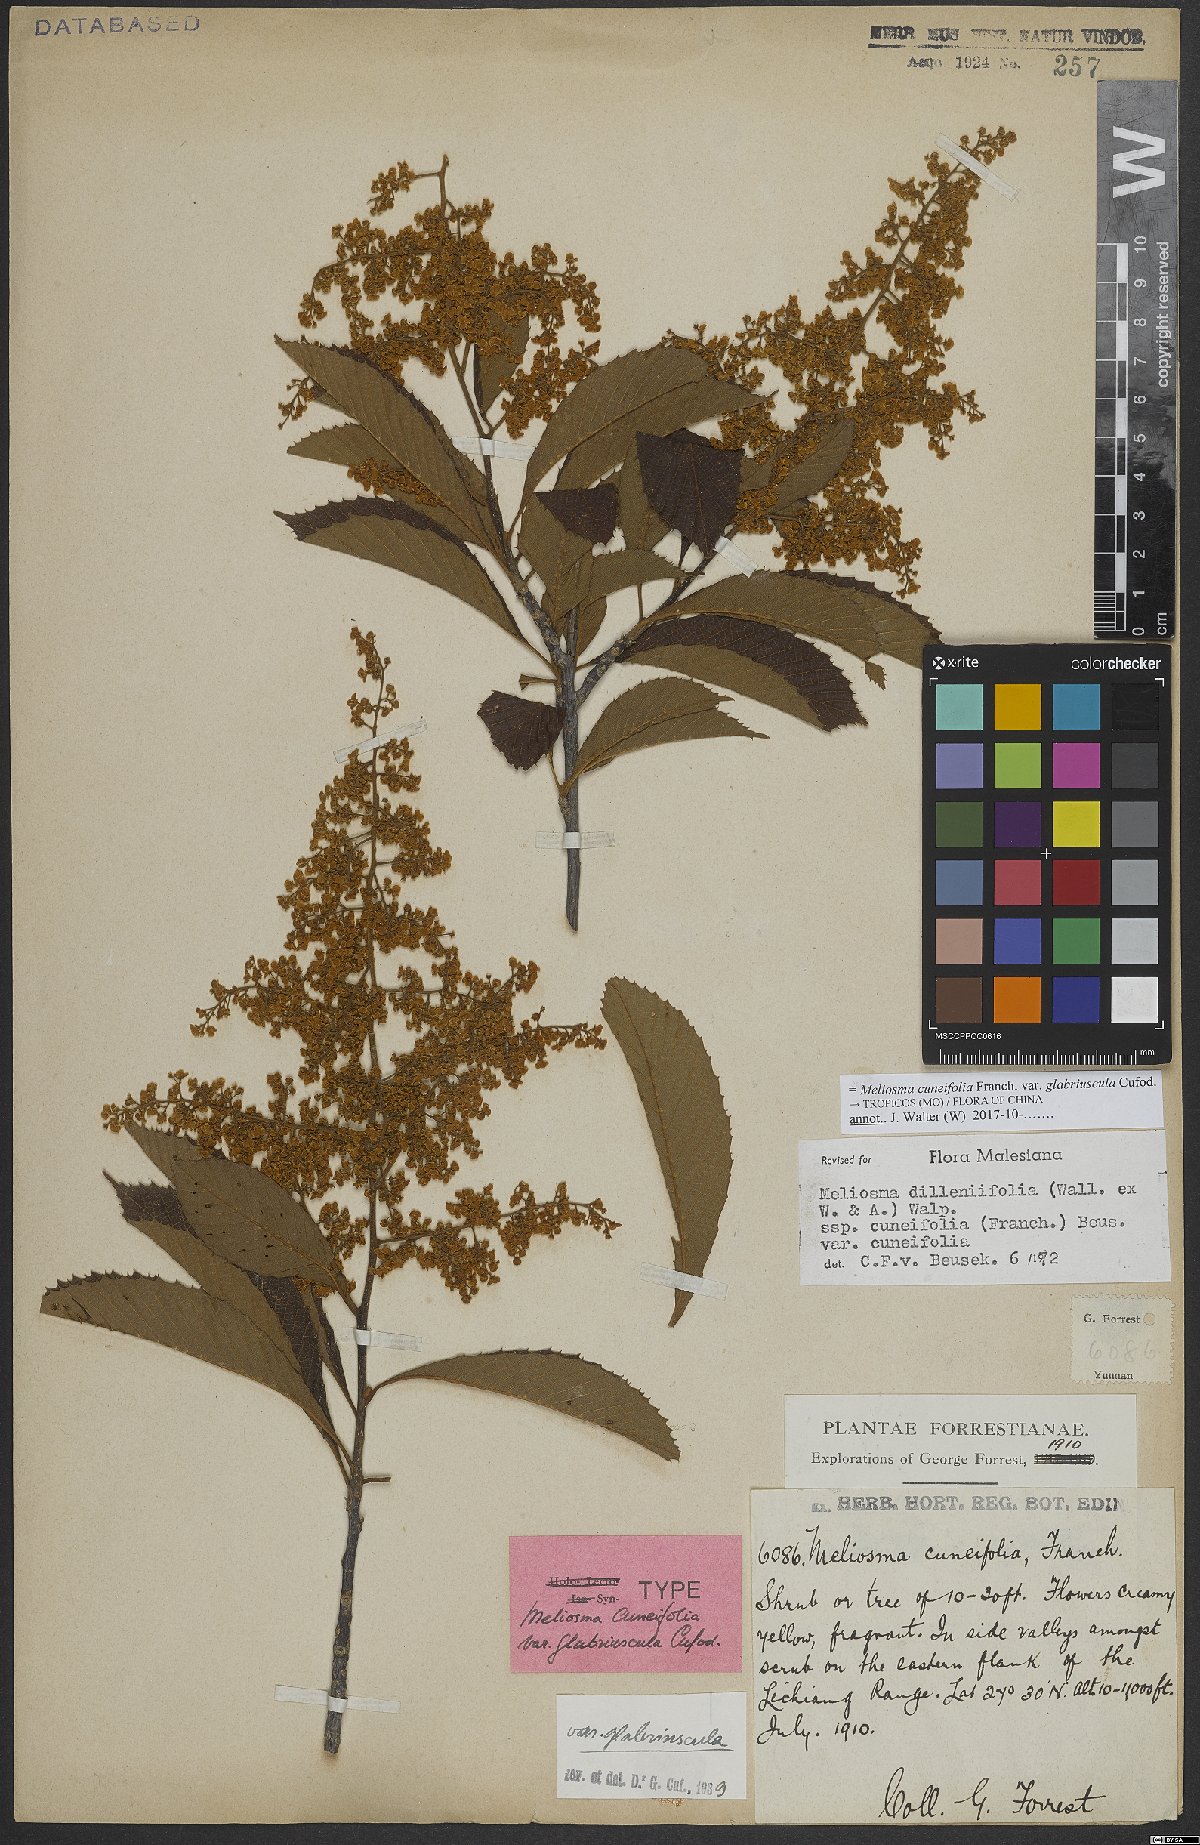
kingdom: Plantae
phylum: Tracheophyta
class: Magnoliopsida
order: Proteales
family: Sabiaceae
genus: Meliosma
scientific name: Meliosma cuneifolia
